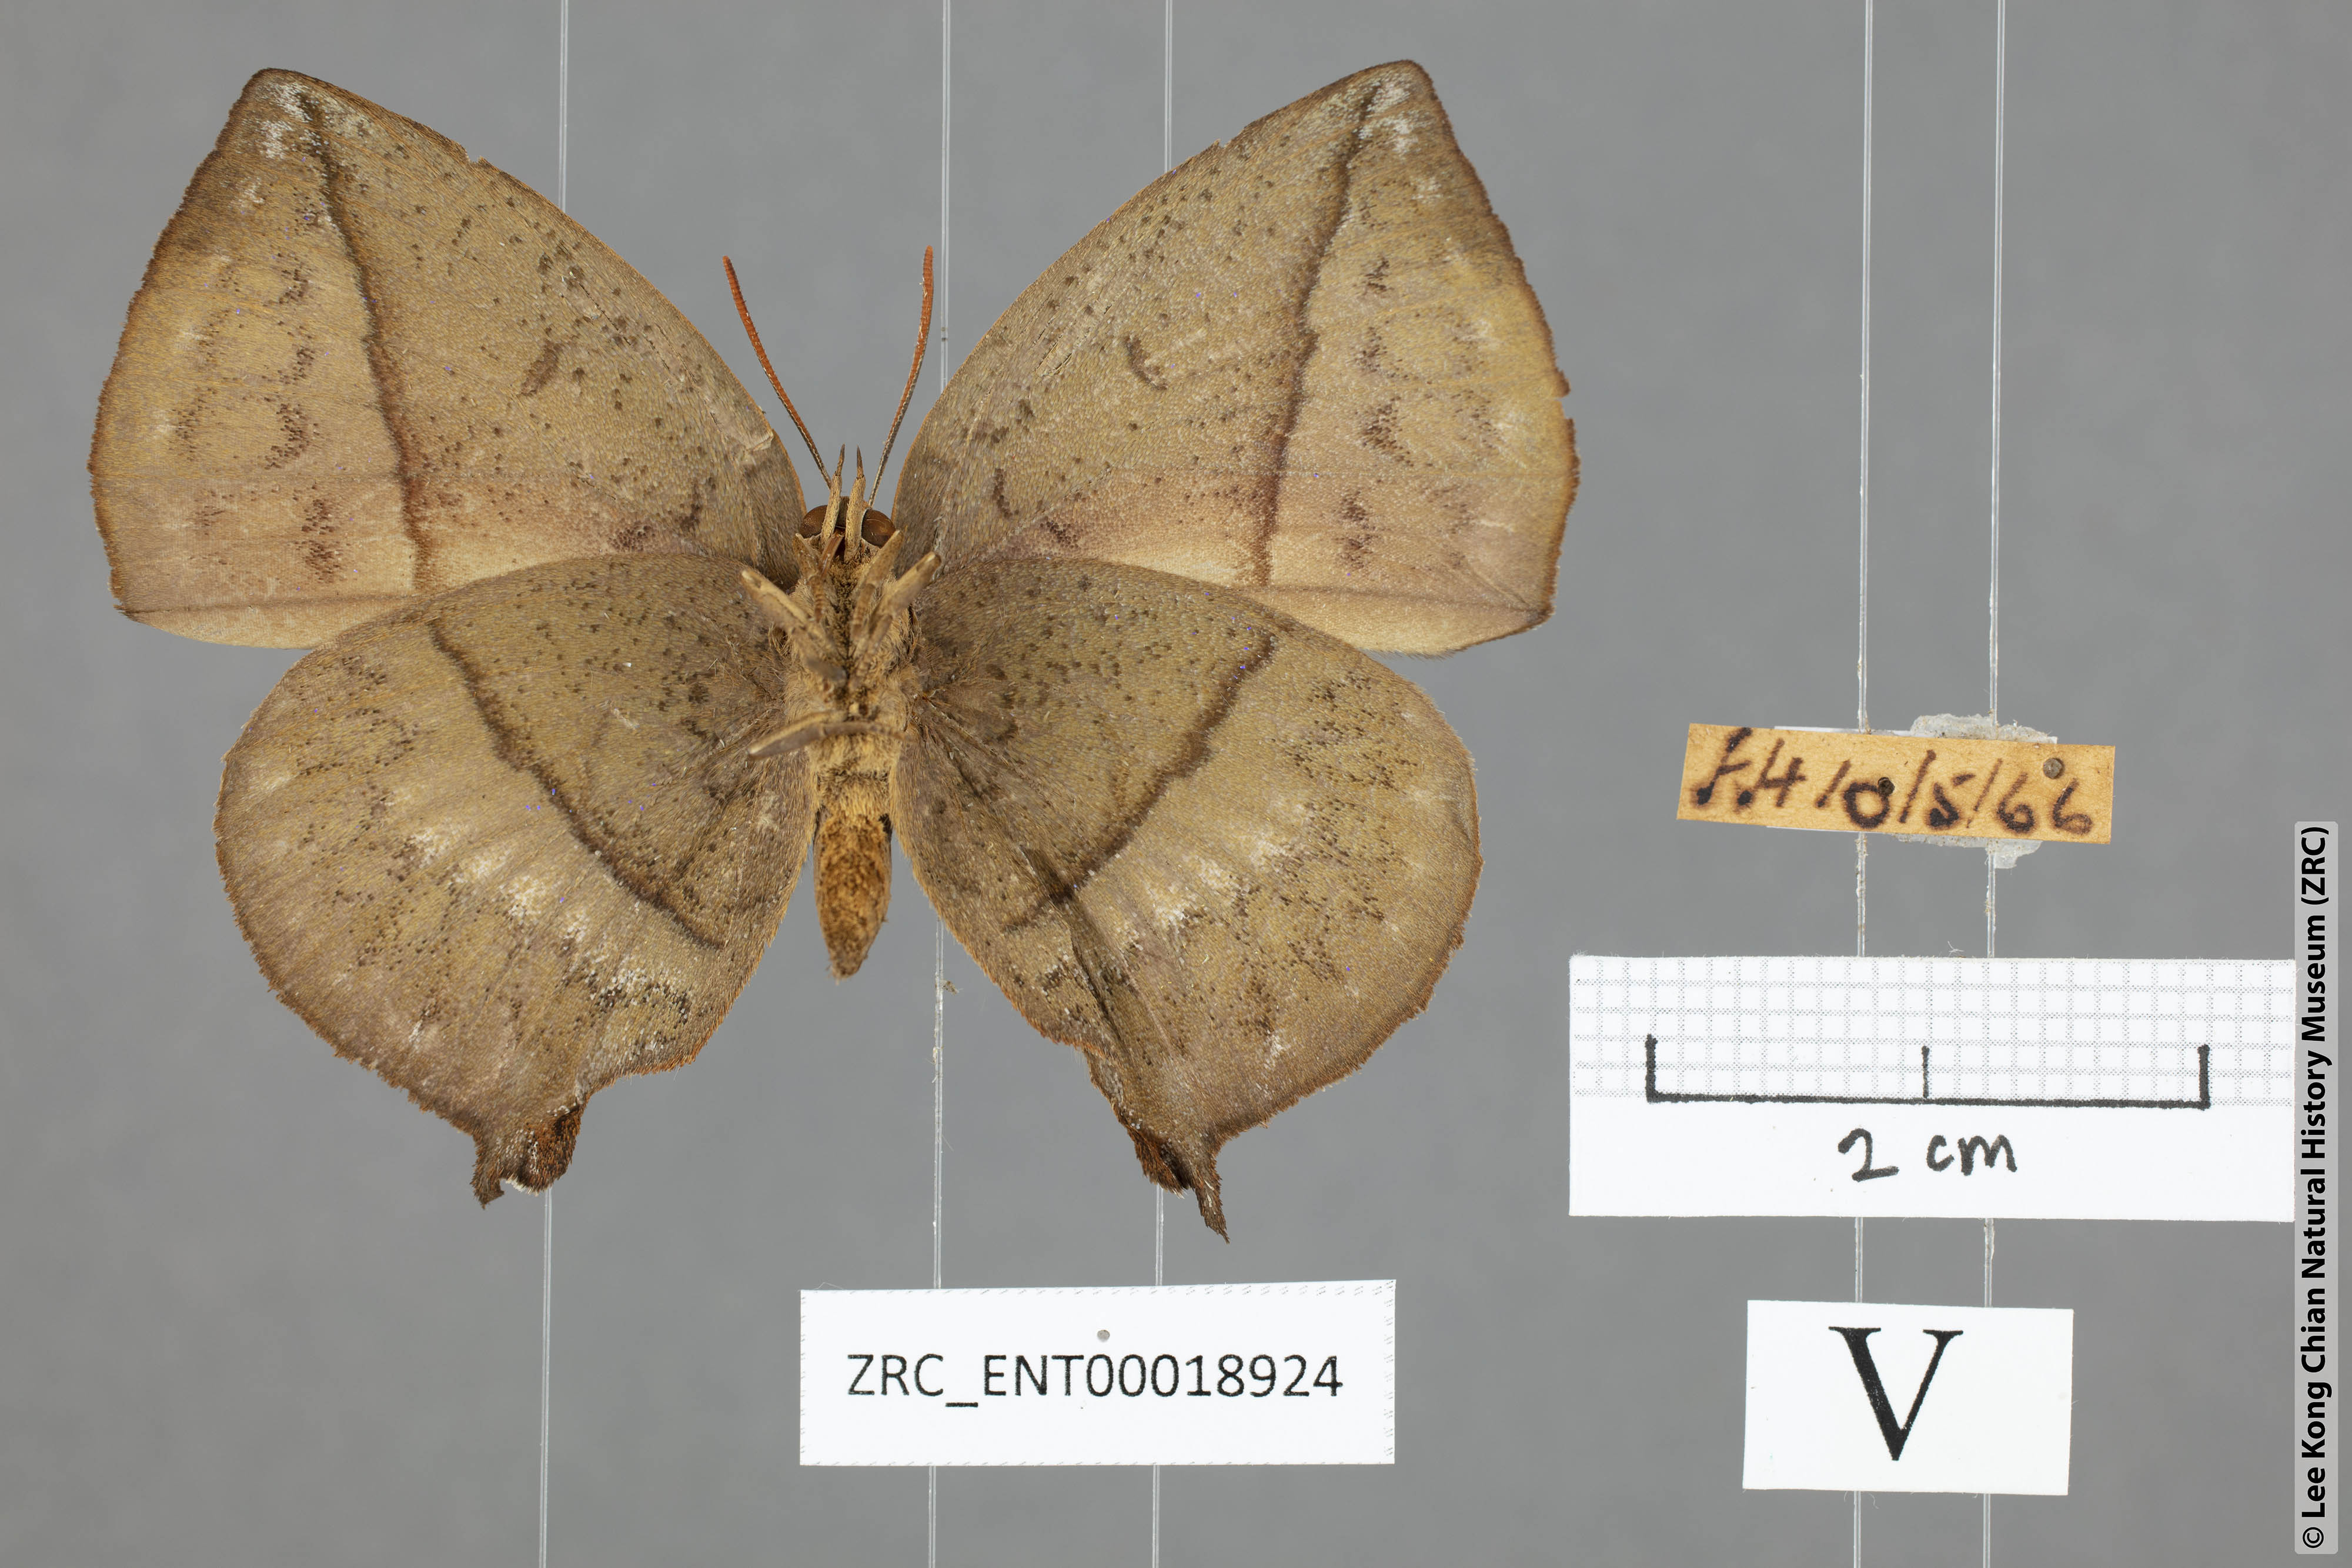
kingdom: Animalia
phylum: Arthropoda
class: Insecta
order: Lepidoptera
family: Lycaenidae
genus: Amblypodia
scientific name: Amblypodia narada
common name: Blue leaf blue
